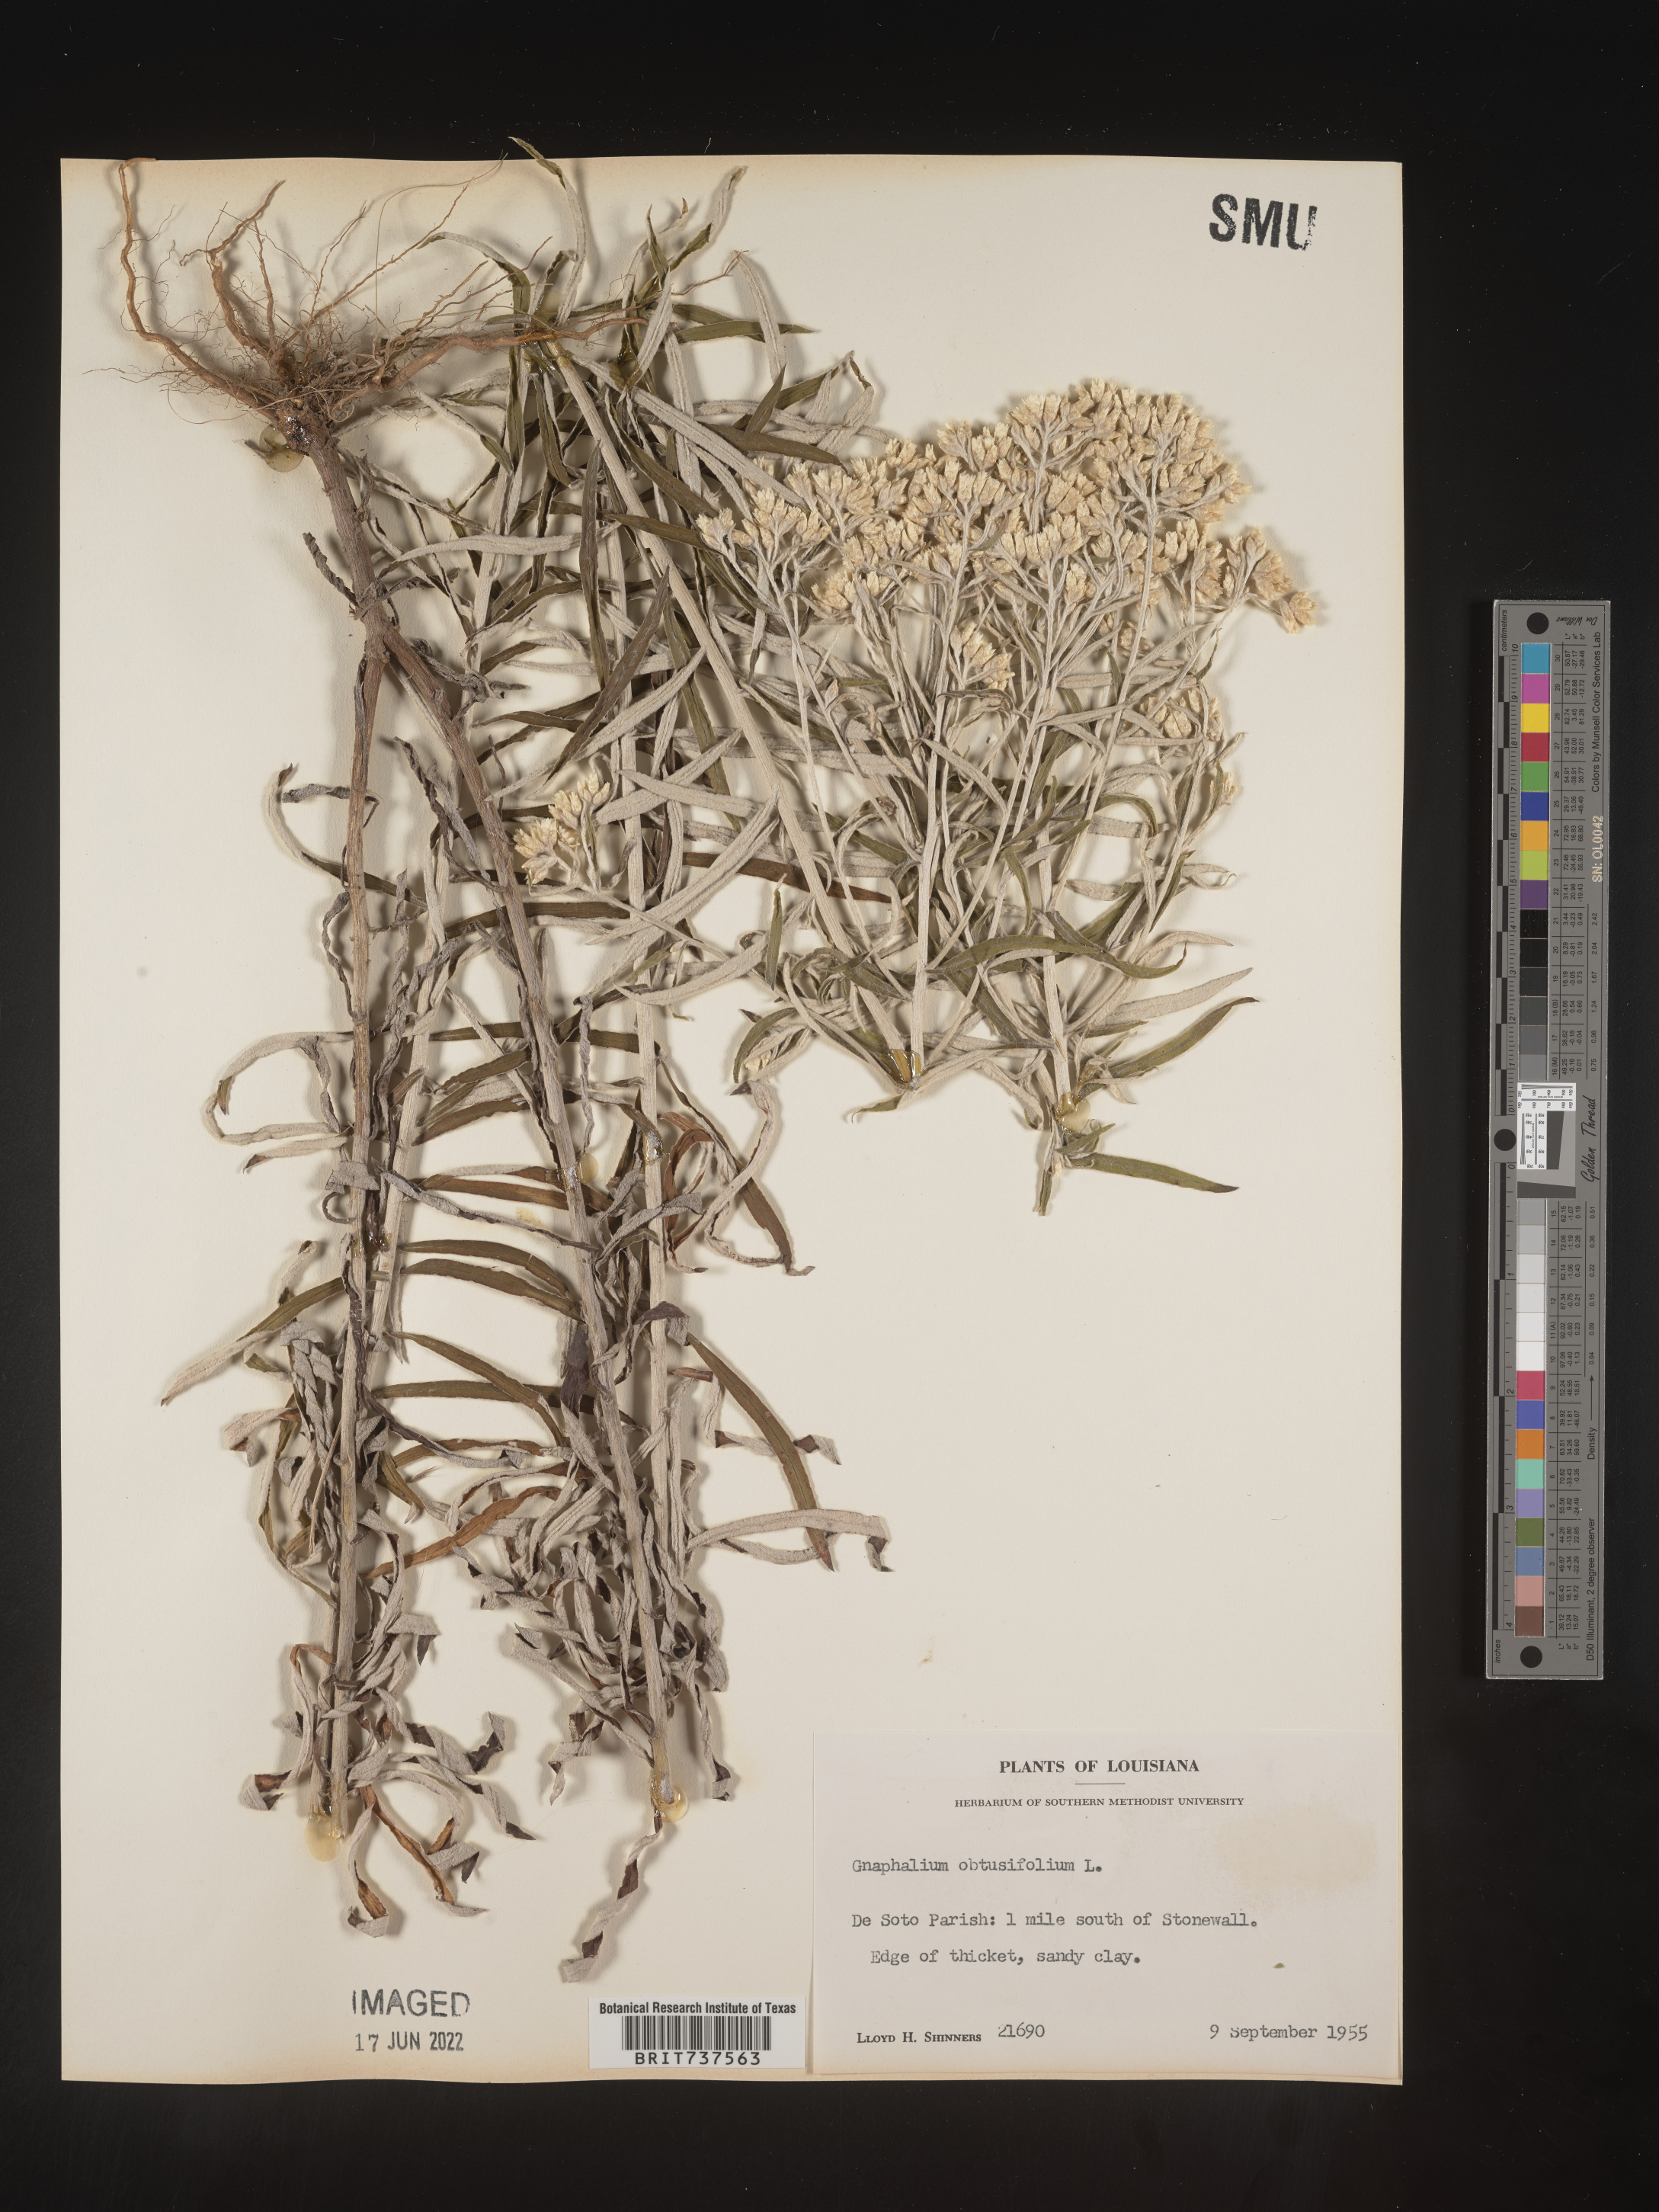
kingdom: Plantae
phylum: Tracheophyta
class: Magnoliopsida
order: Asterales
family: Asteraceae
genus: Pseudognaphalium
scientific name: Pseudognaphalium obtusifolium
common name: Eastern rabbit-tobacco
